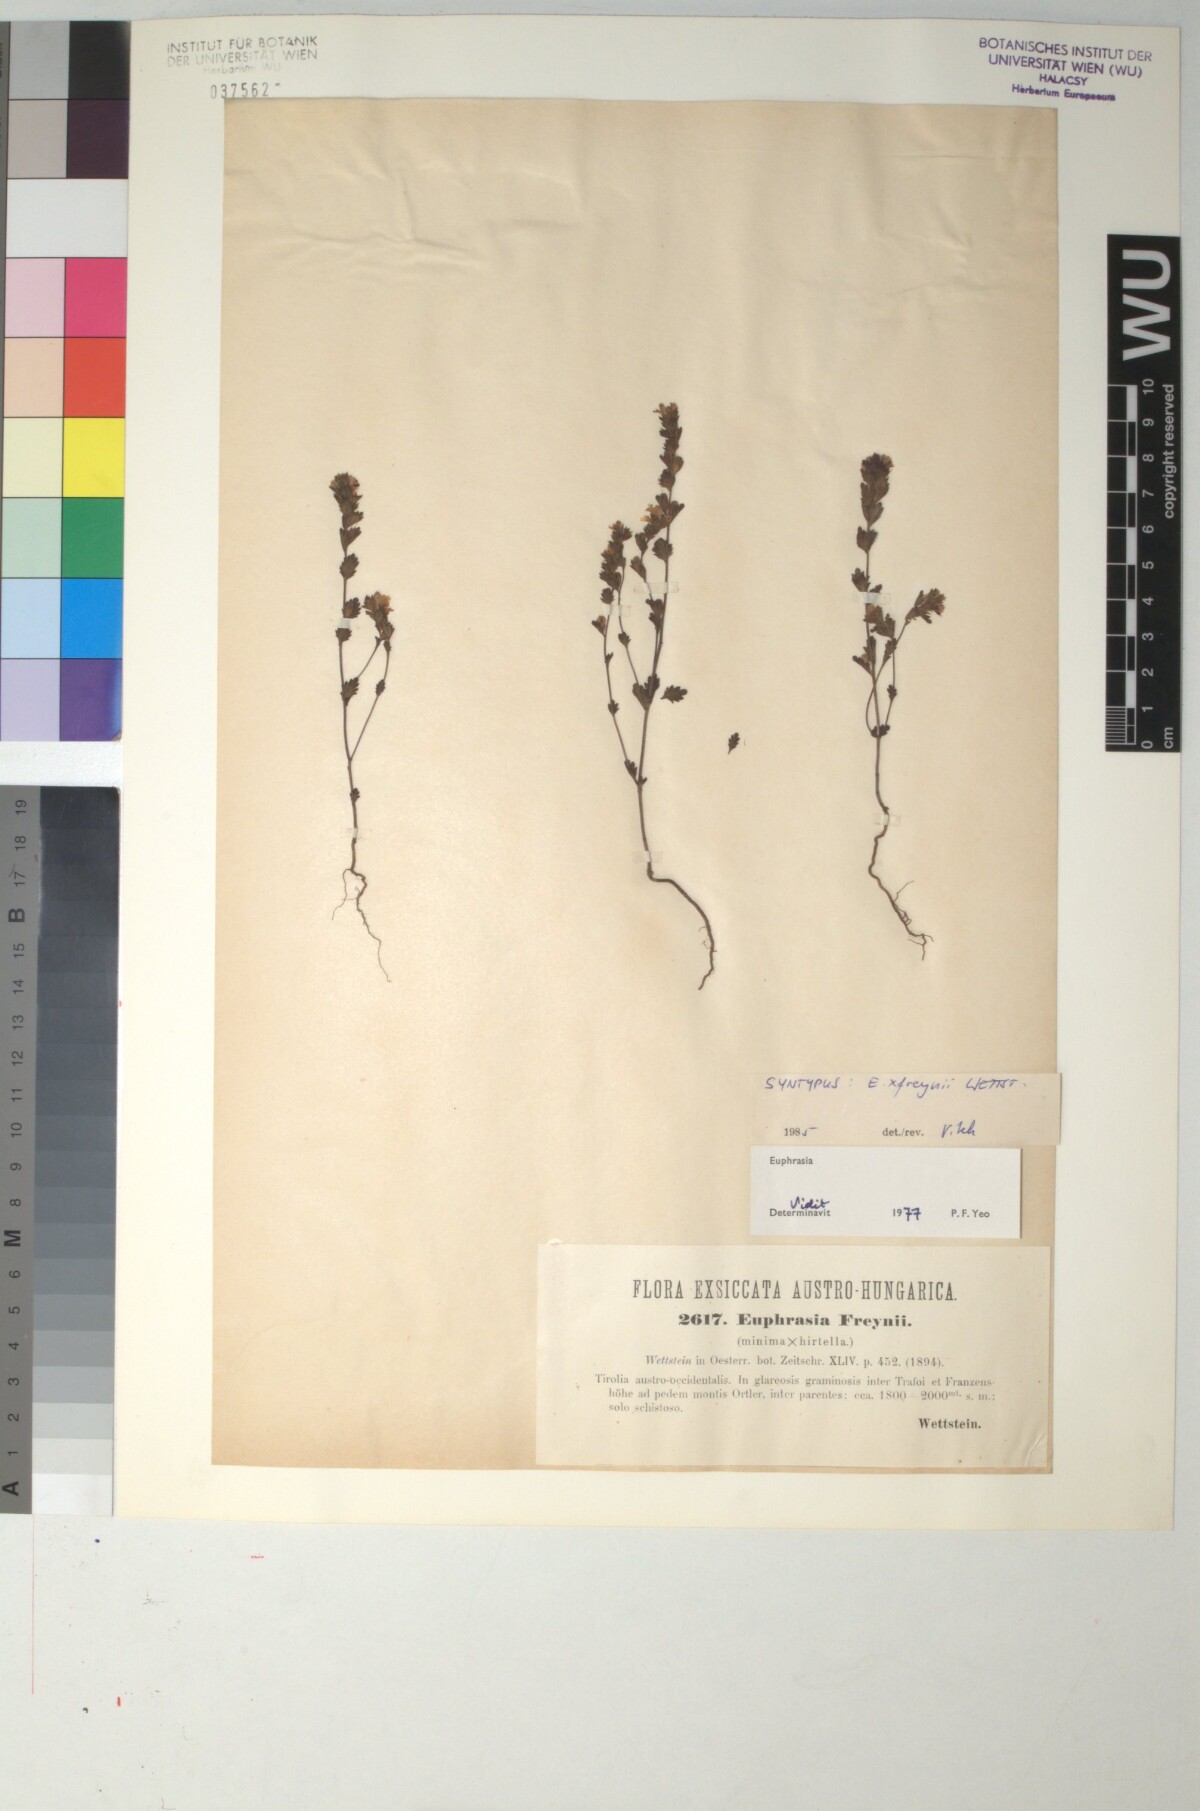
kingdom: Plantae
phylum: Tracheophyta
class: Magnoliopsida
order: Lamiales
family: Scrophulariaceae
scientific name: Scrophulariaceae
